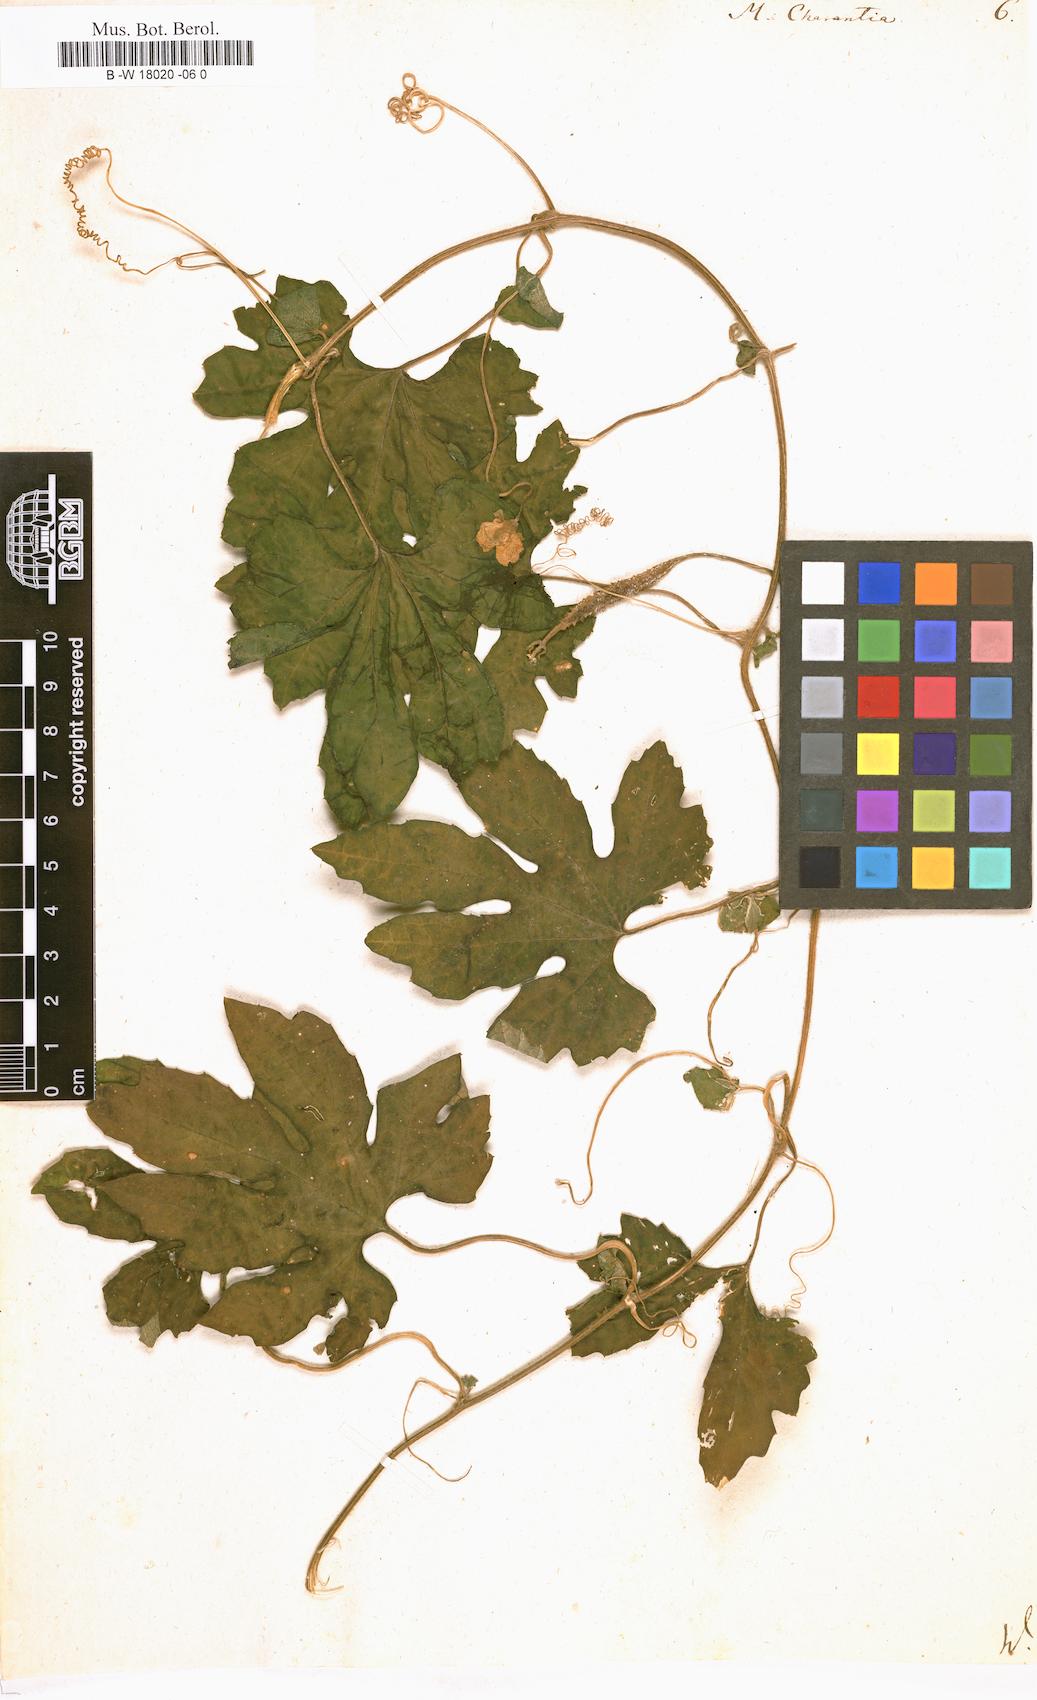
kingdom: Plantae
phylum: Tracheophyta
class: Magnoliopsida
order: Cucurbitales
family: Cucurbitaceae
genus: Momordica
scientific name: Momordica charantia
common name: Balsampear
